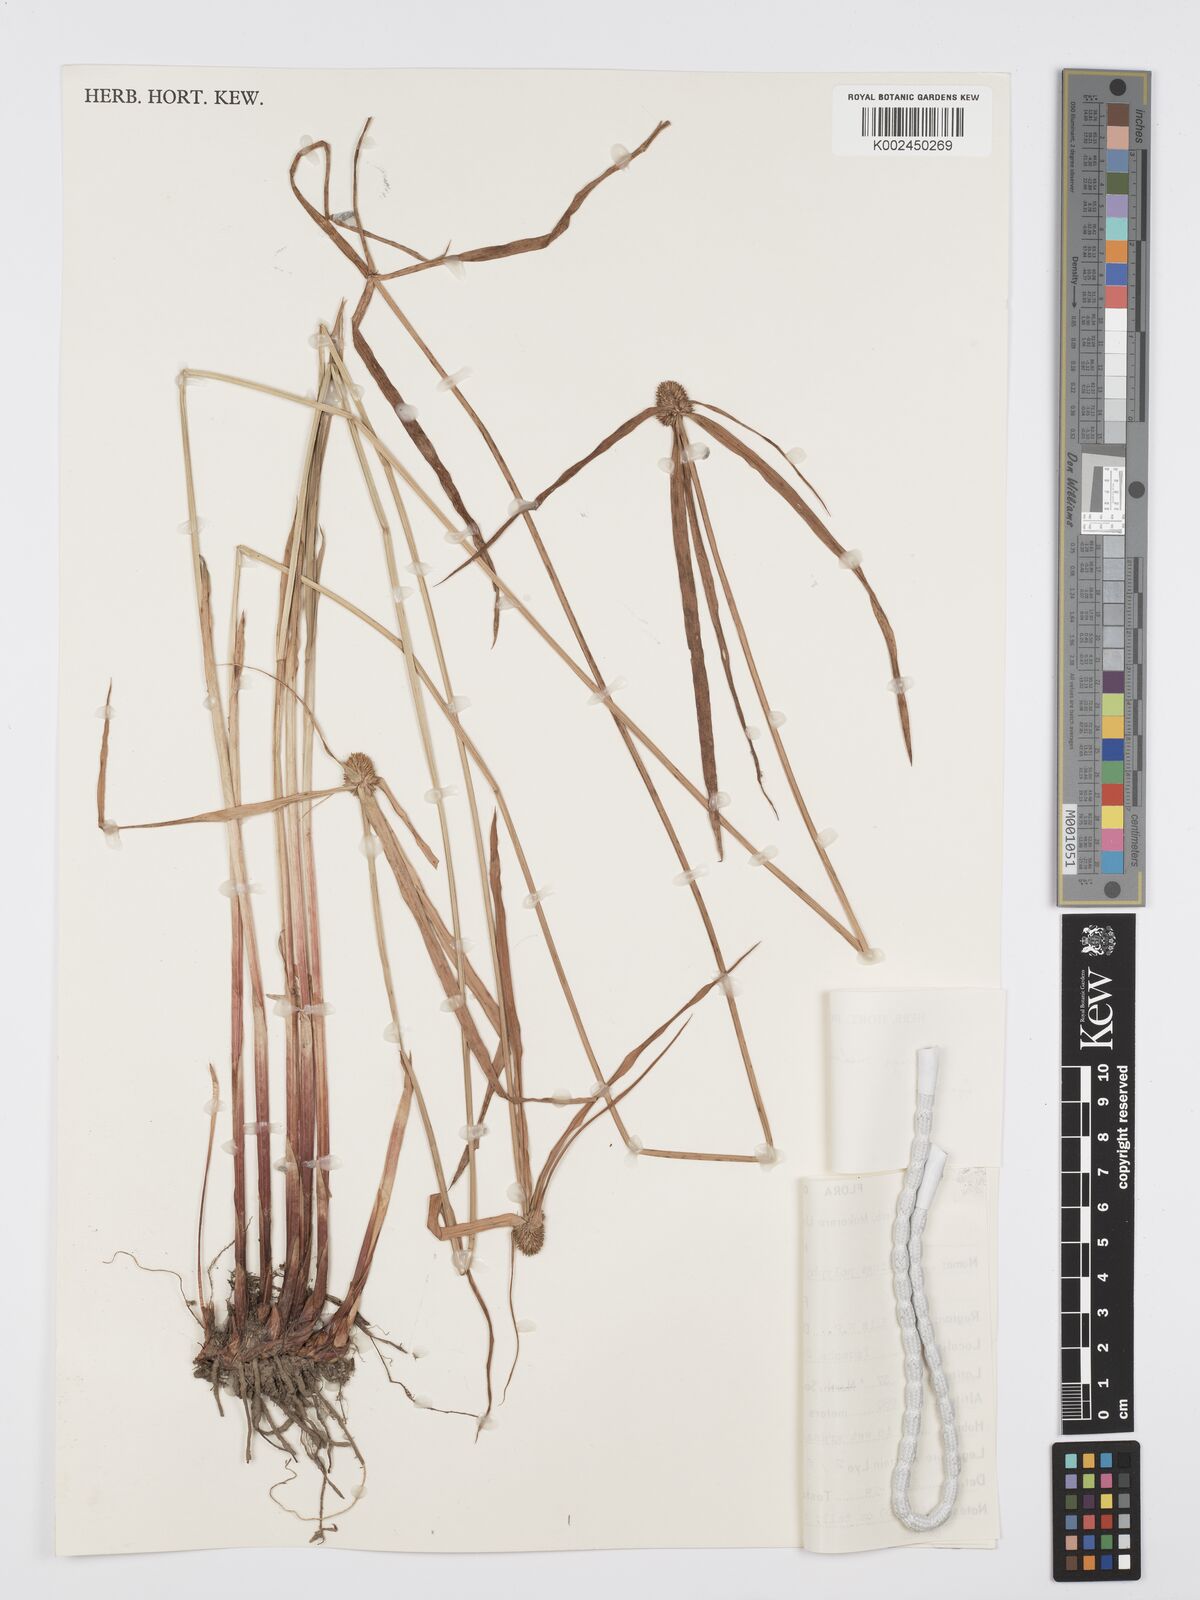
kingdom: Plantae
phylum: Tracheophyta
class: Liliopsida
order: Poales
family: Cyperaceae
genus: Cyperus
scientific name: Cyperus
